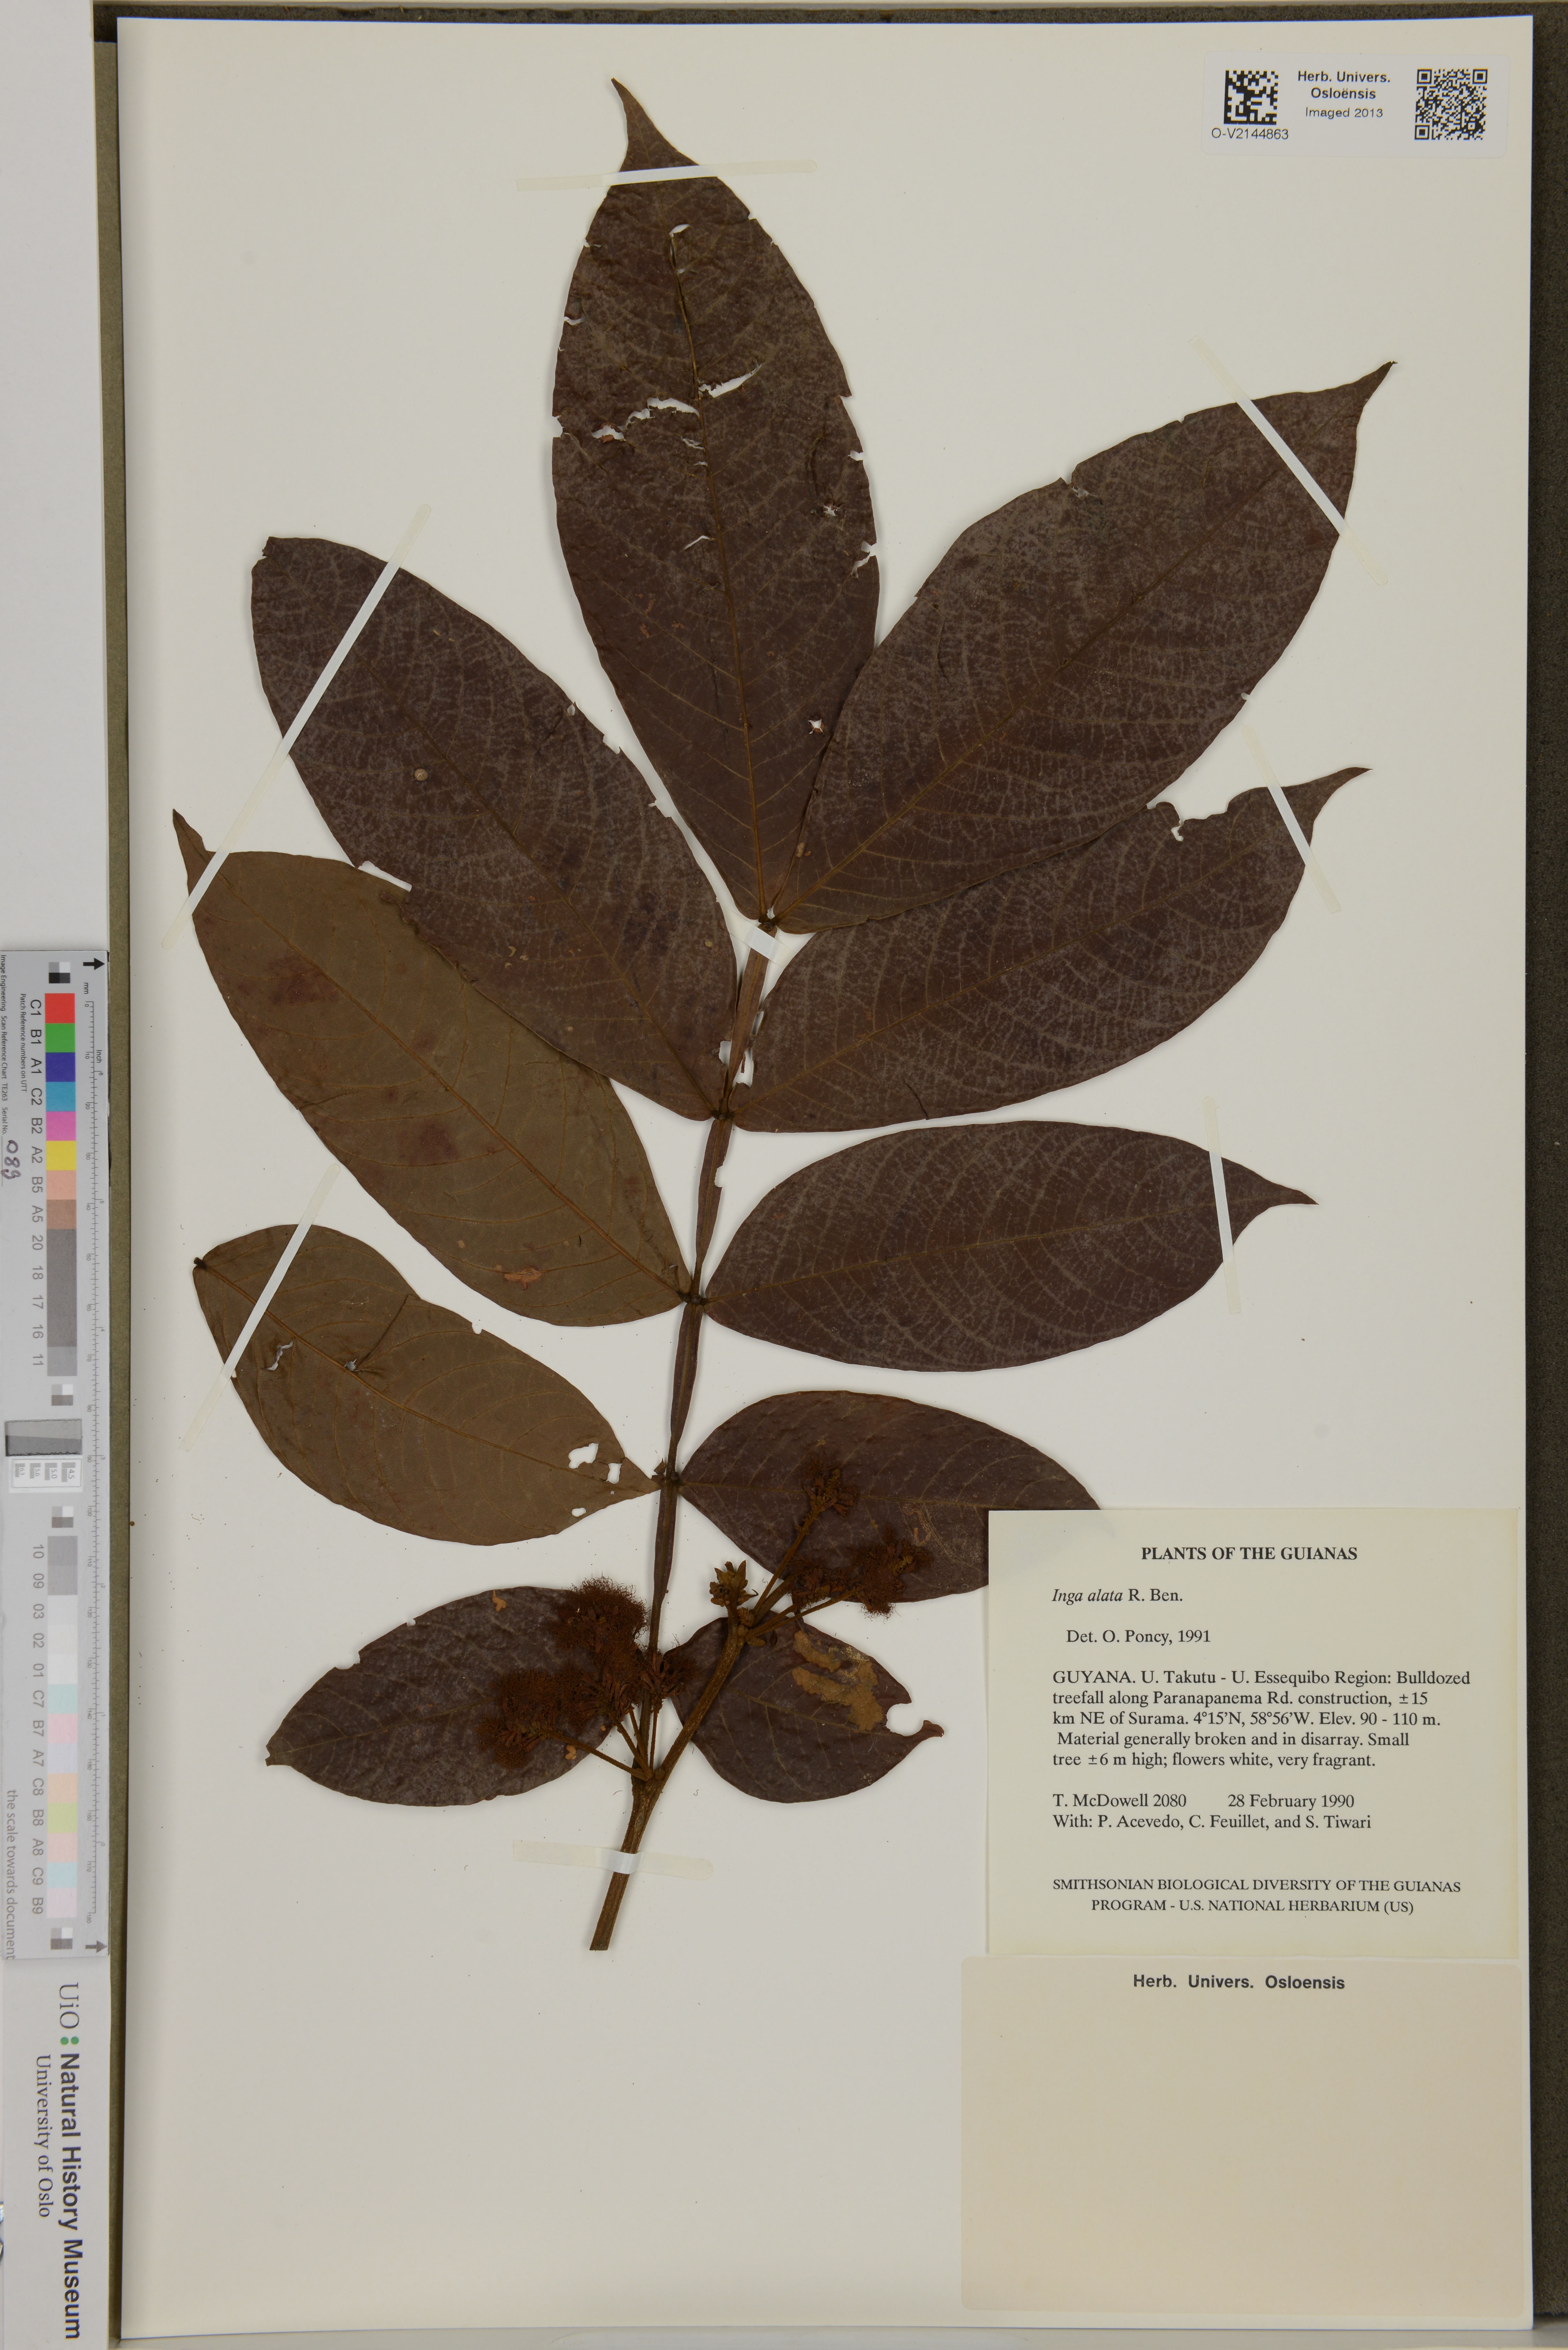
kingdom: Plantae
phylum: Tracheophyta
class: Magnoliopsida
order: Fabales
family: Fabaceae
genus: Inga
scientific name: Inga alata
